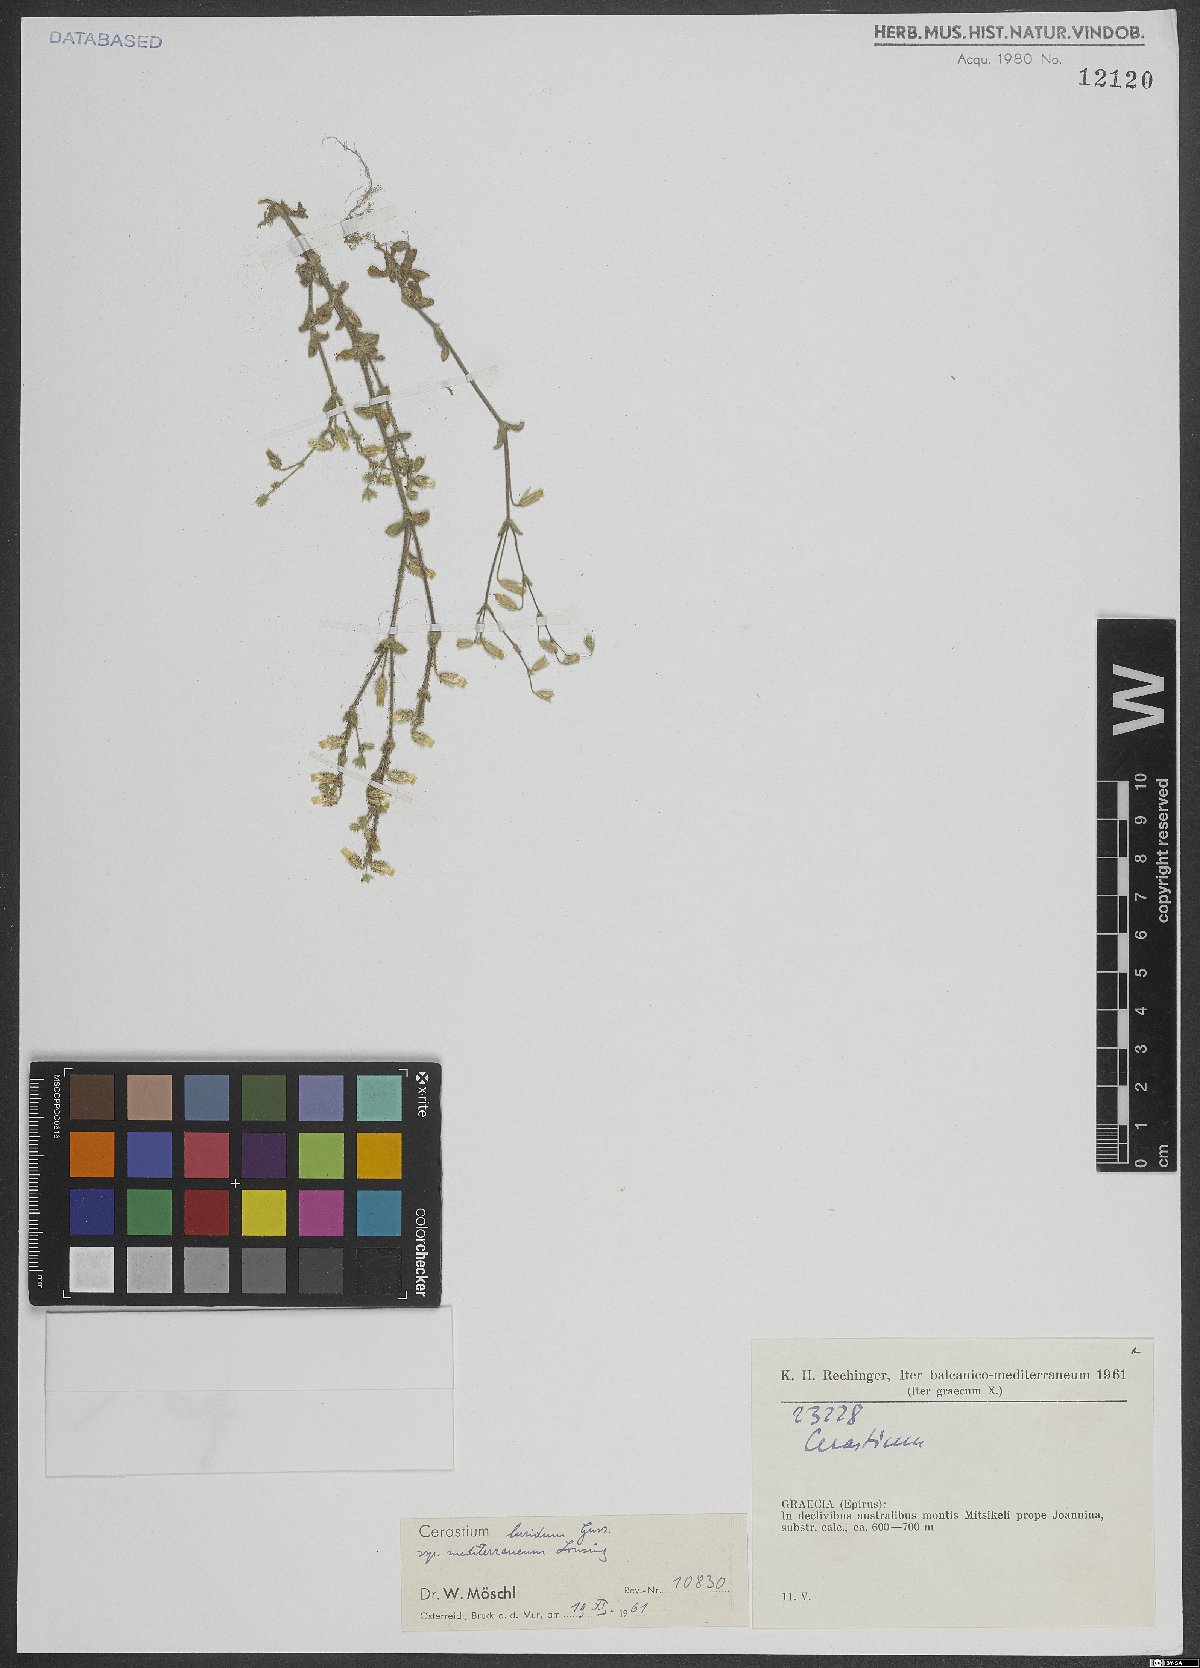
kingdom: Plantae
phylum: Tracheophyta
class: Magnoliopsida
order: Caryophyllales
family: Caryophyllaceae
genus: Cerastium
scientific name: Cerastium brachypetalum
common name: Grey mouse-ear
